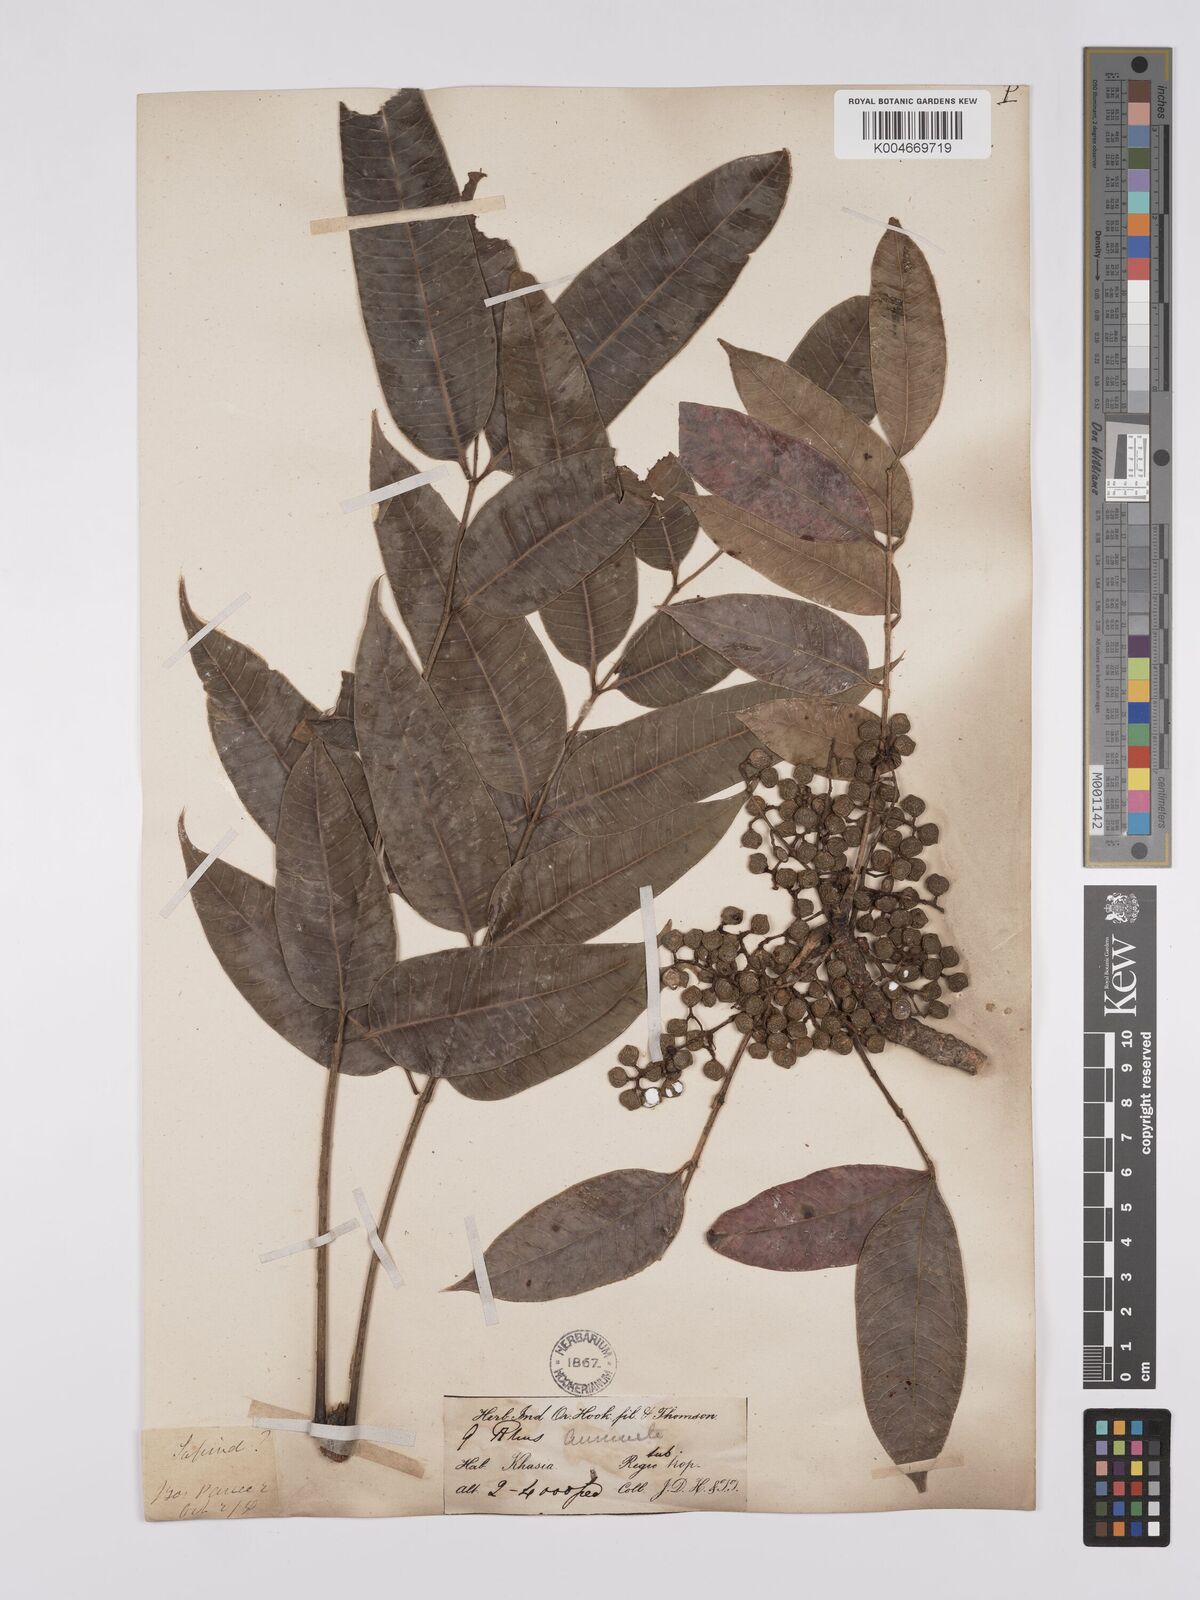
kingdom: Plantae
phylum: Tracheophyta
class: Magnoliopsida
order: Sapindales
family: Anacardiaceae
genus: Toxicodendron
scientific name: Toxicodendron succedaneum
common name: Wax tree
